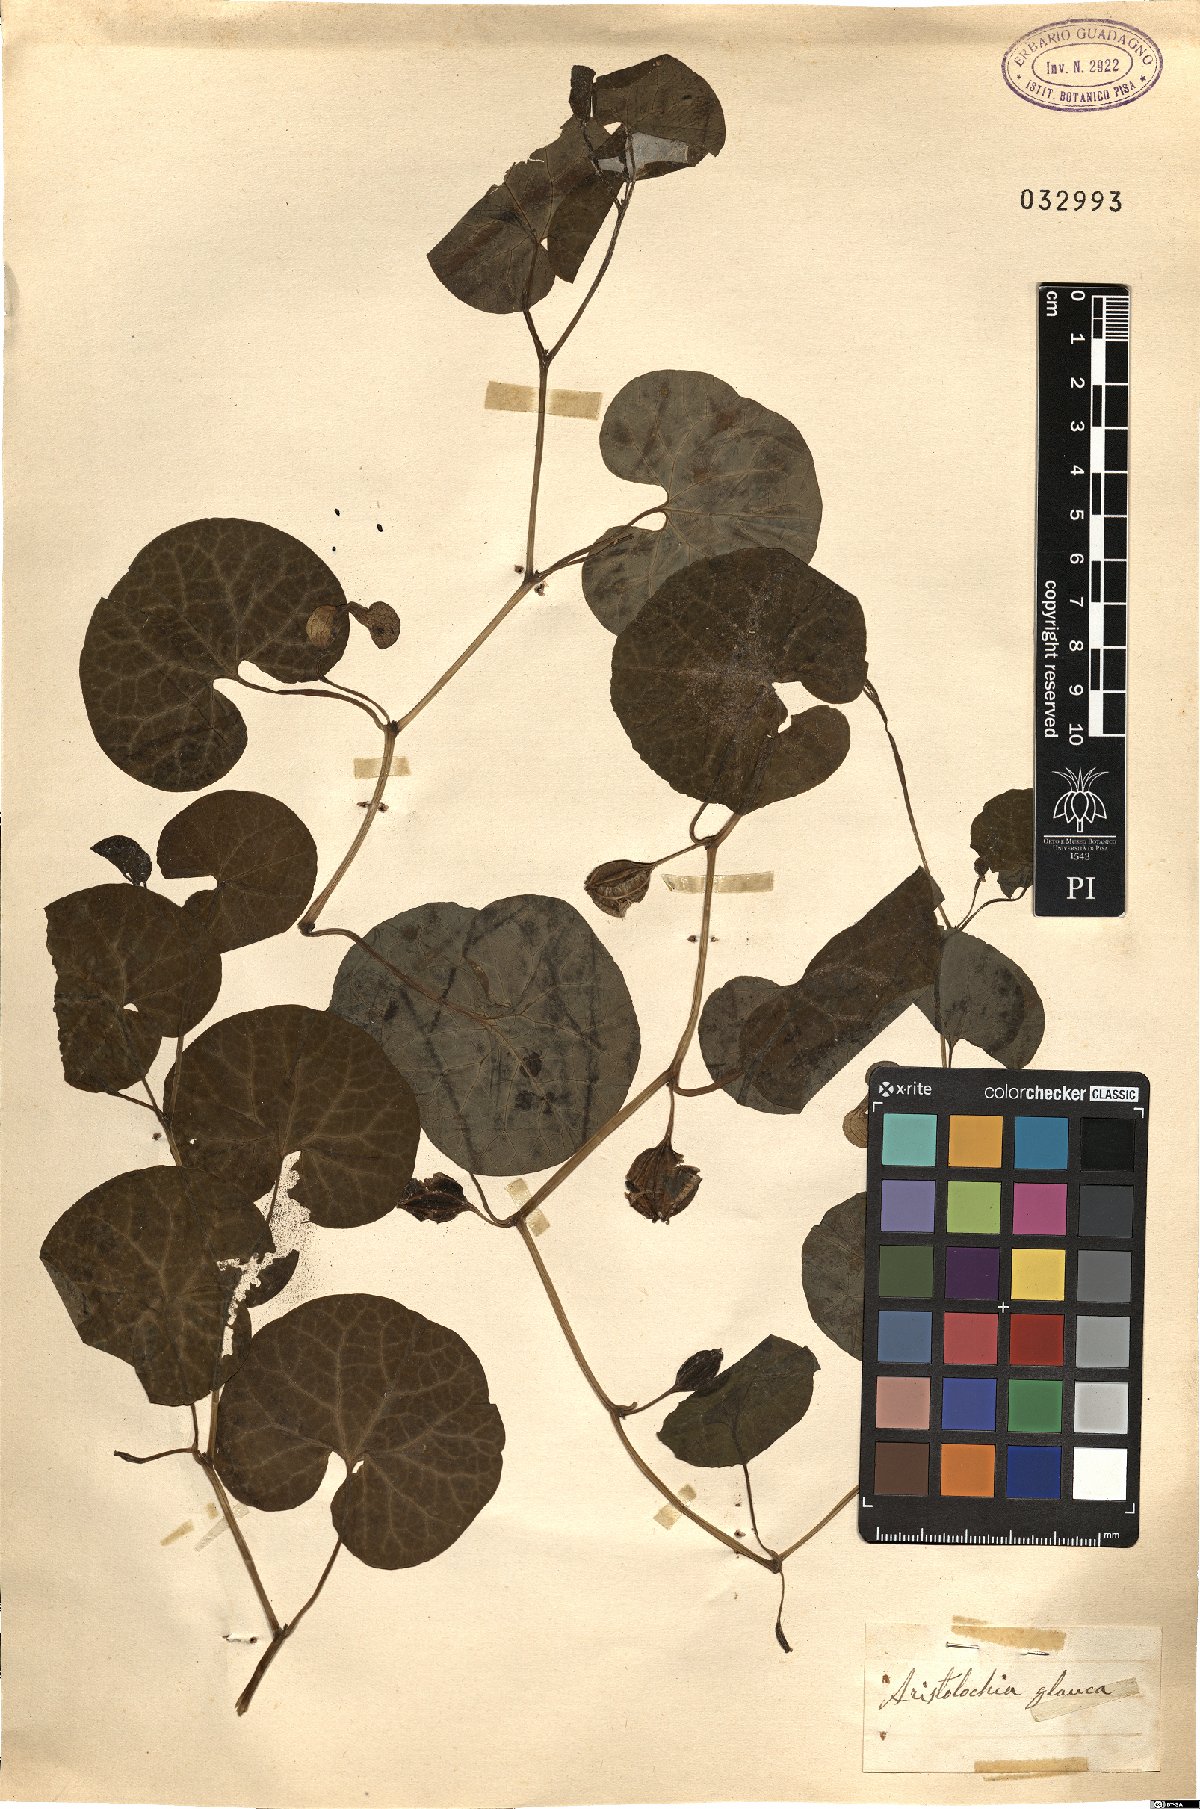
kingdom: Plantae
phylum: Tracheophyta
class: Magnoliopsida
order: Piperales
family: Aristolochiaceae
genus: Aristolochia
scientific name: Aristolochia baetica
